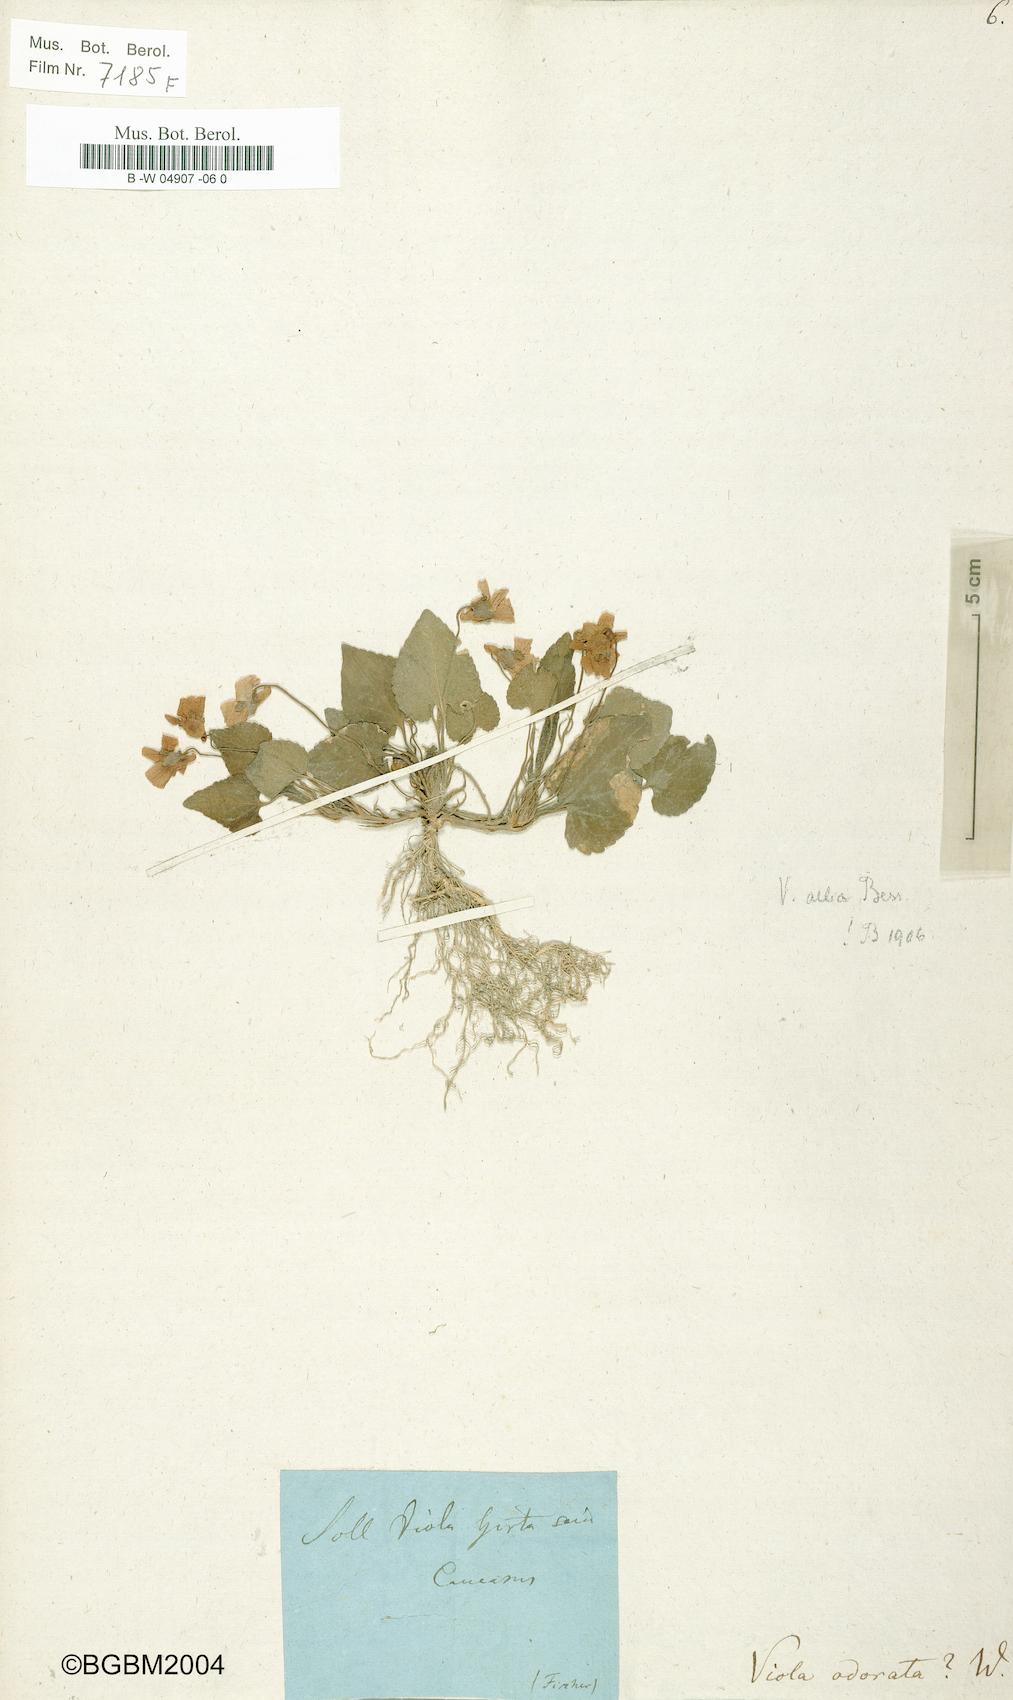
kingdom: Plantae
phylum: Tracheophyta
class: Magnoliopsida
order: Malpighiales
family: Violaceae
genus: Viola
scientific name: Viola odorata
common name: Sweet violet
